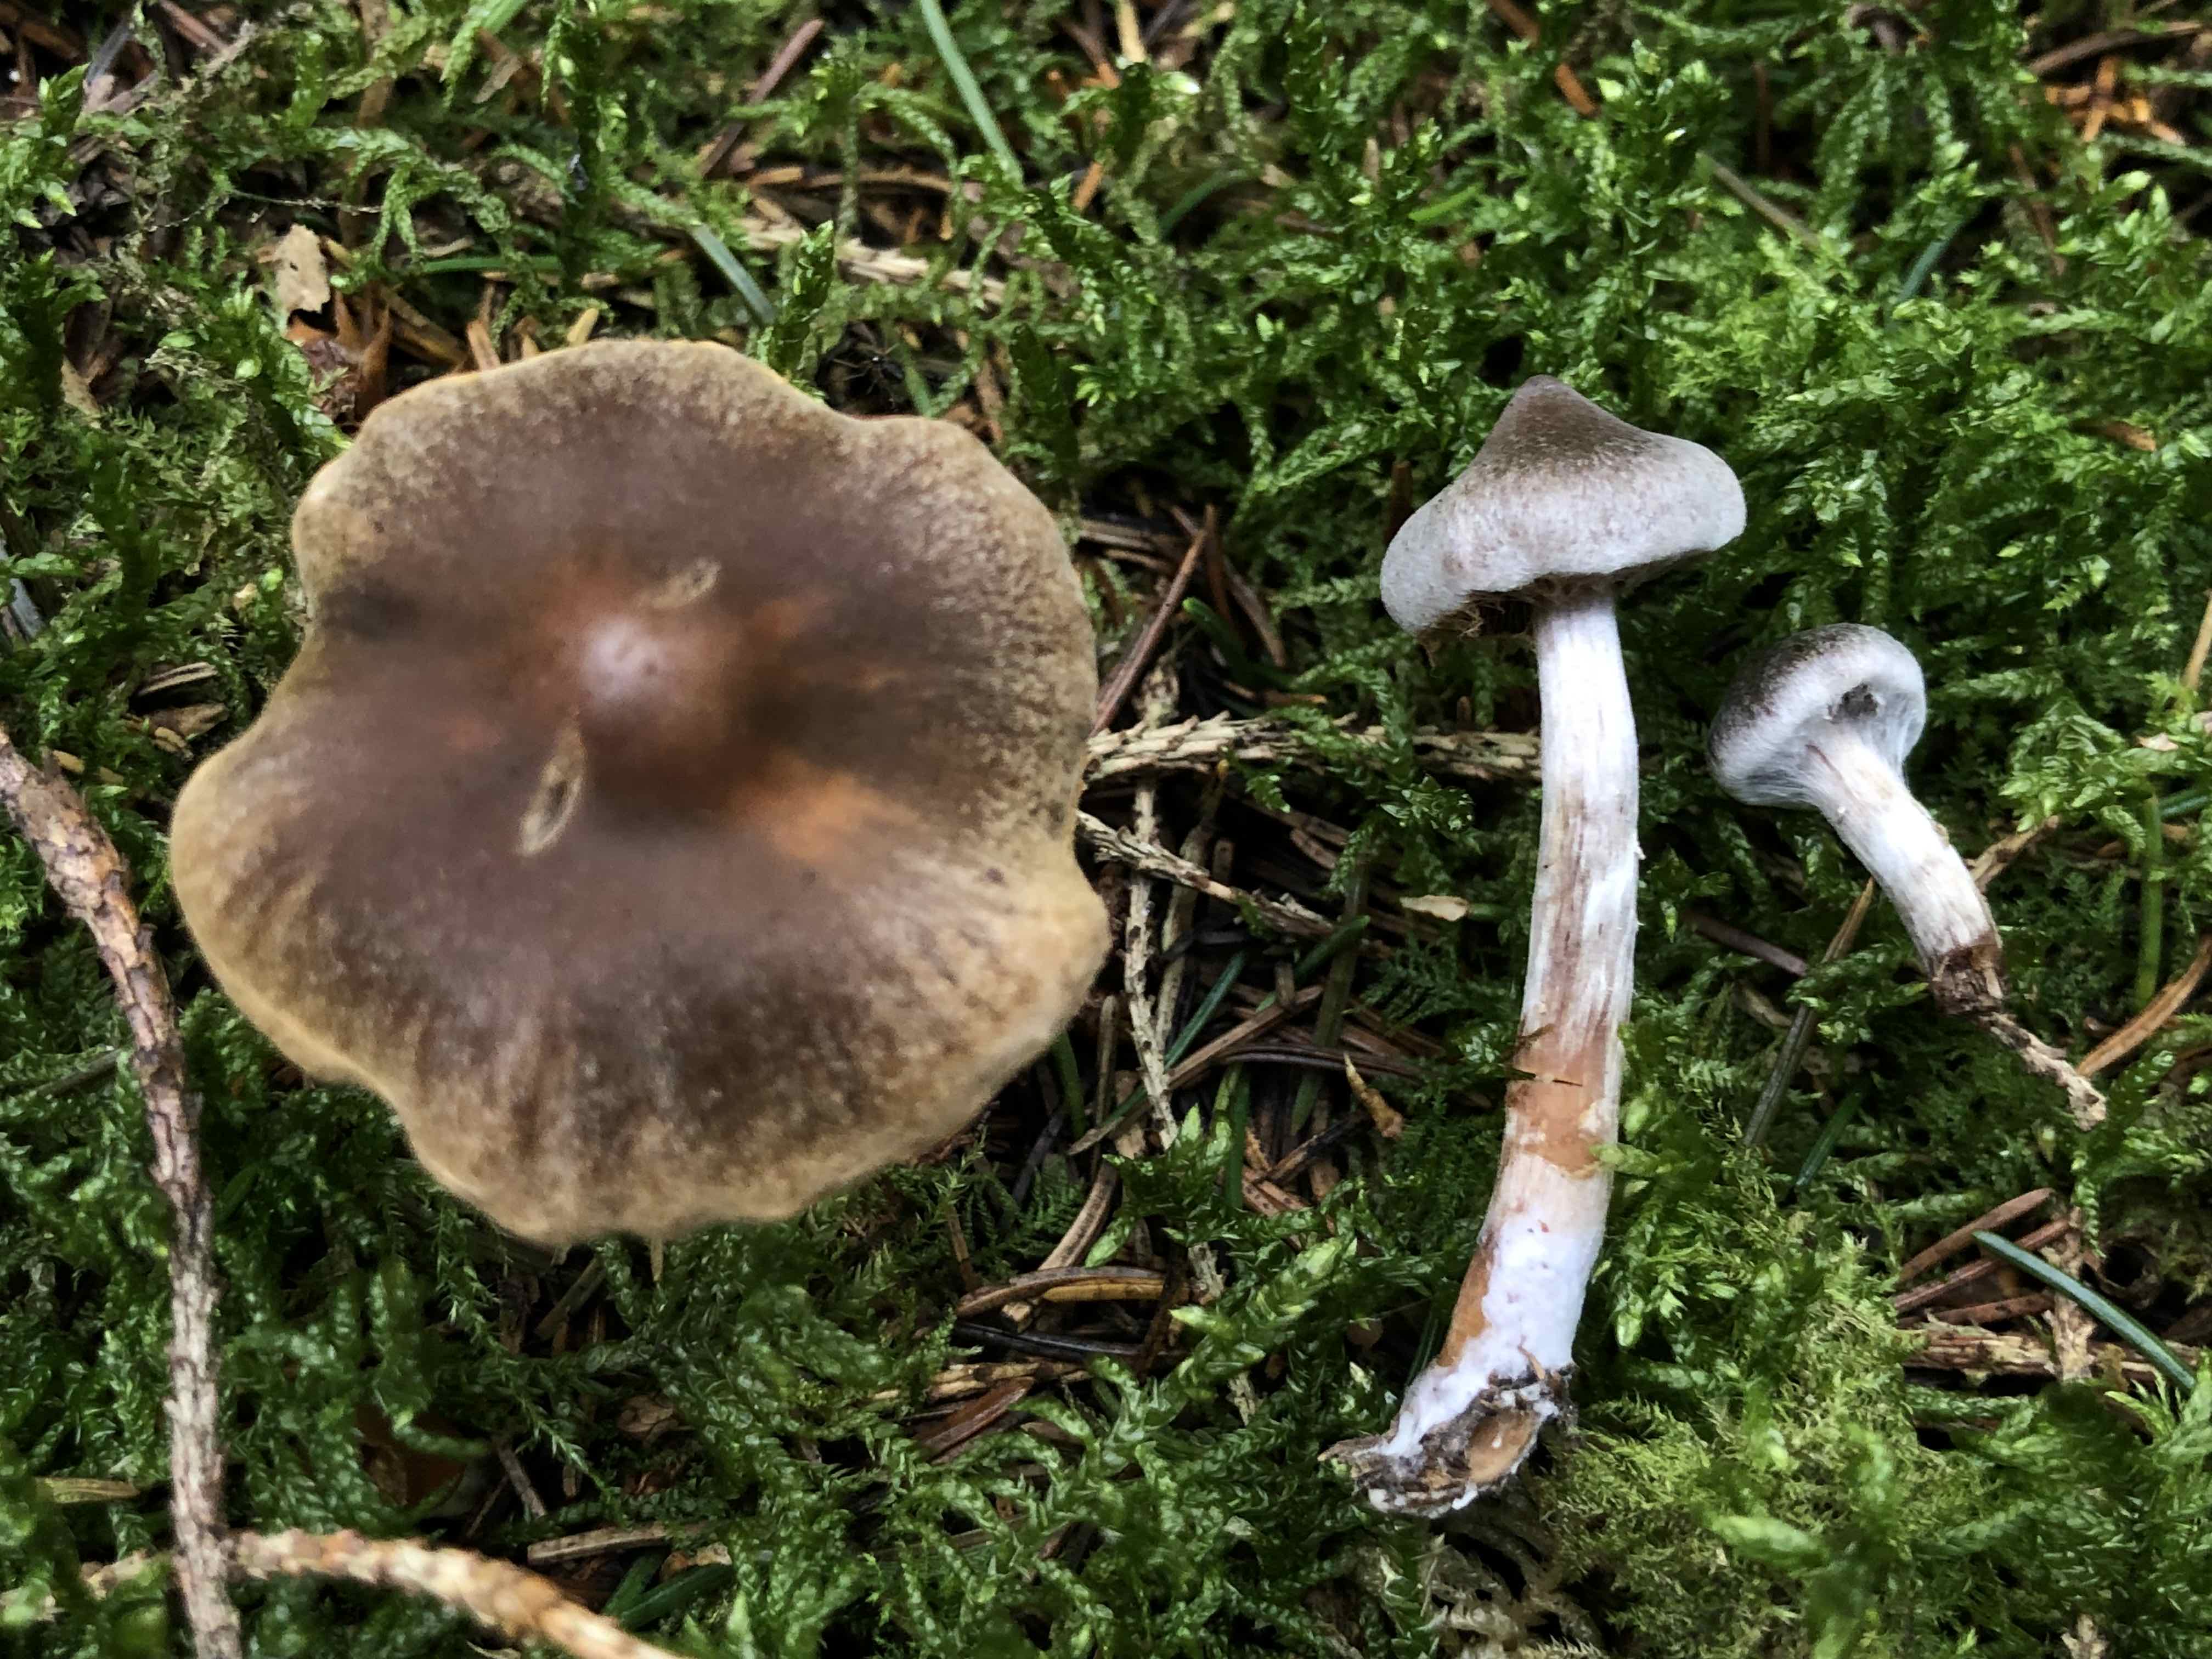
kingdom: Fungi
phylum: Basidiomycota
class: Agaricomycetes
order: Agaricales
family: Cortinariaceae
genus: Cortinarius
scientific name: Cortinarius
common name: pelargonie-slørhat
